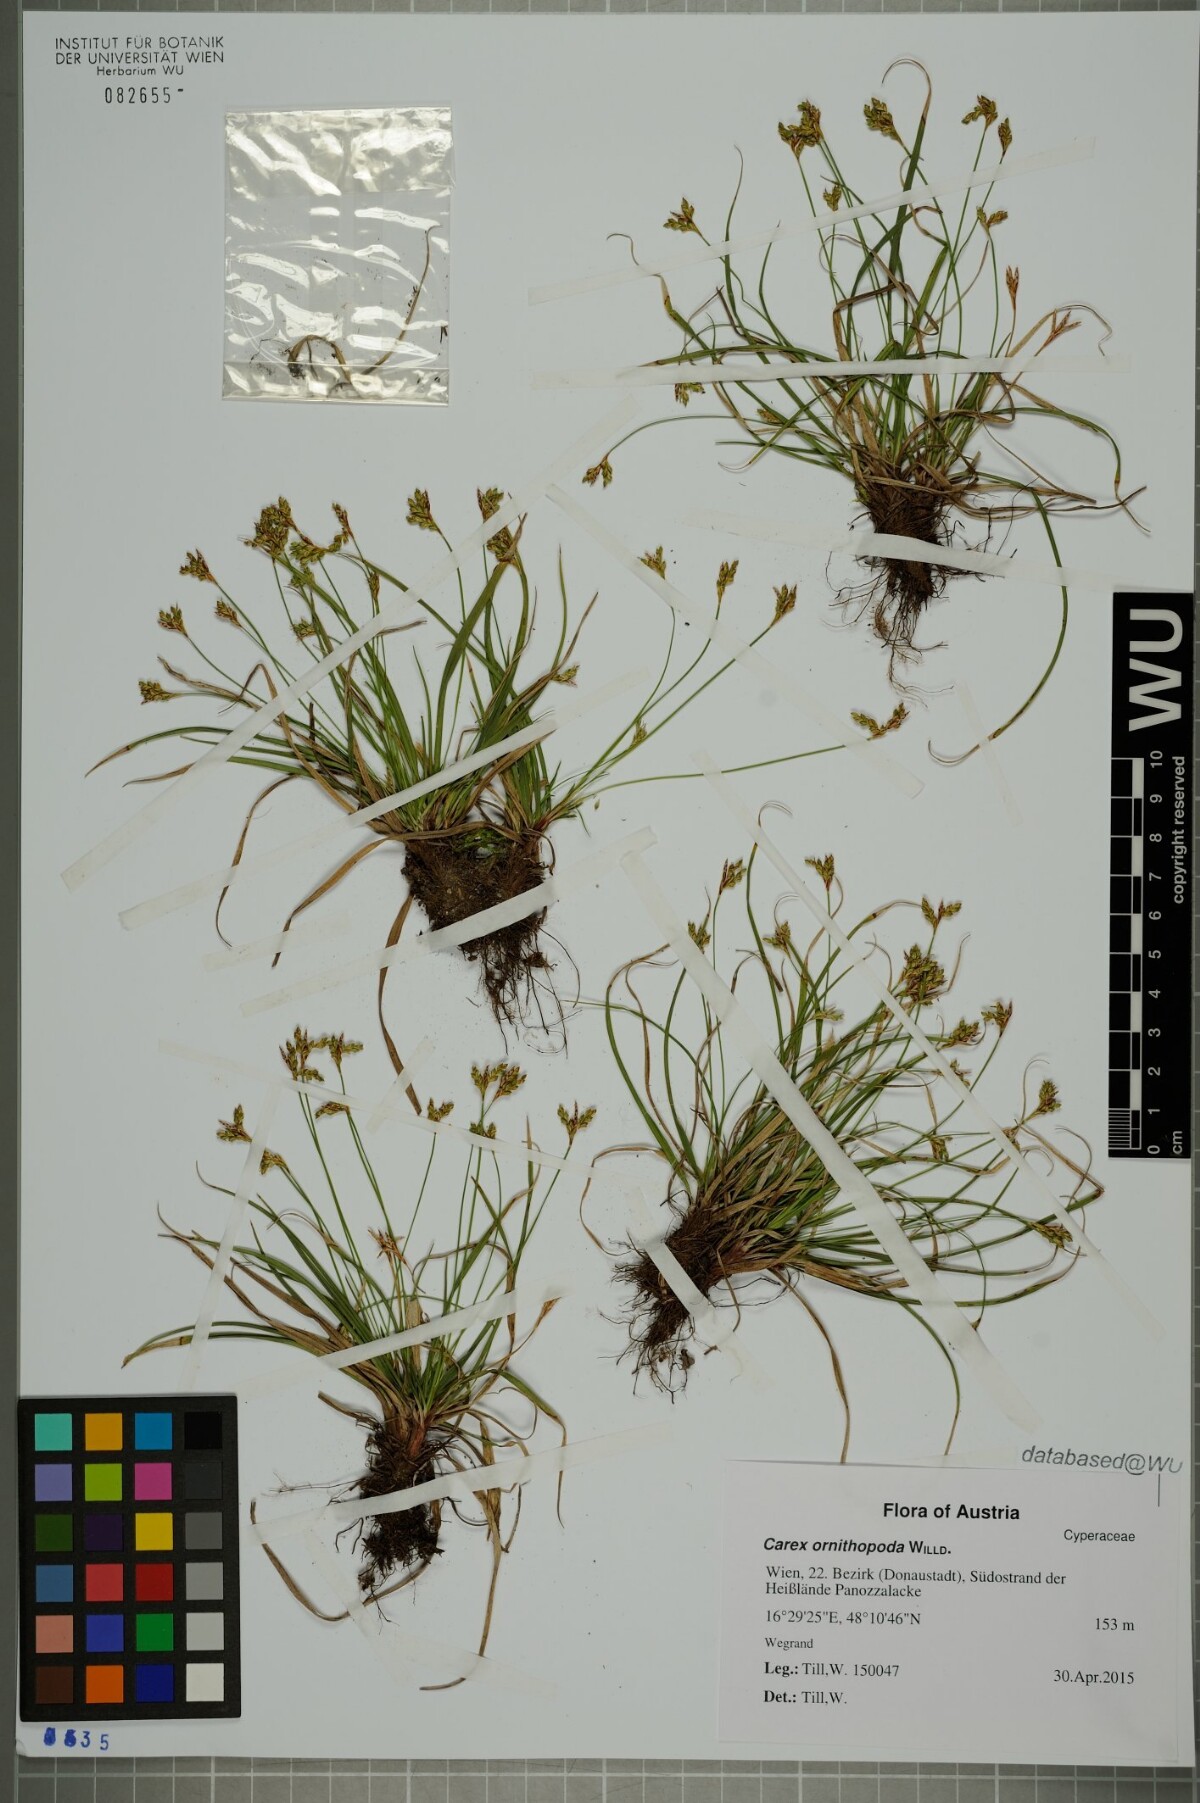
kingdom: Plantae
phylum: Tracheophyta
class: Liliopsida
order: Poales
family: Cyperaceae
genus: Carex
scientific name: Carex ornithopoda
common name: Bird's-foot sedge
